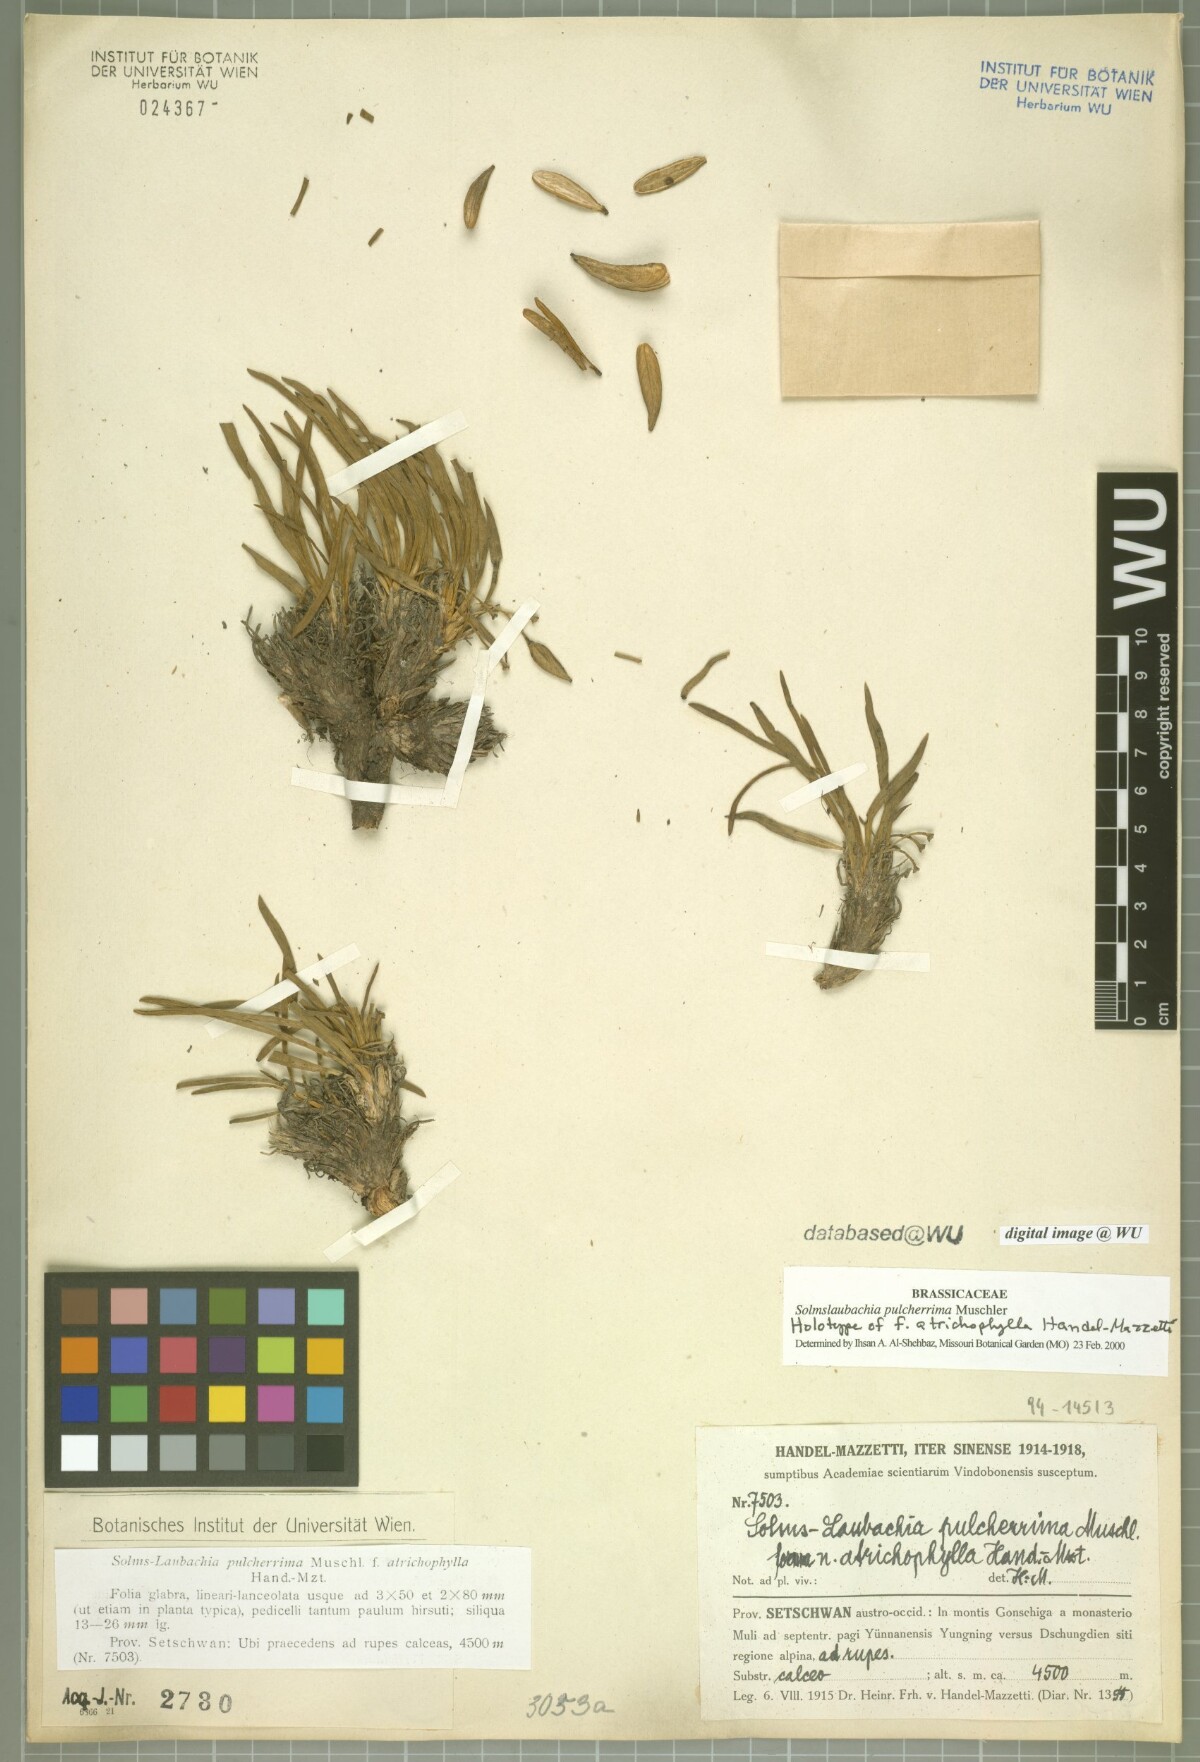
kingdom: Plantae
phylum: Tracheophyta
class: Magnoliopsida
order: Brassicales
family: Brassicaceae
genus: Solms-laubachia
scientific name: Solms-laubachia pulcherrima
